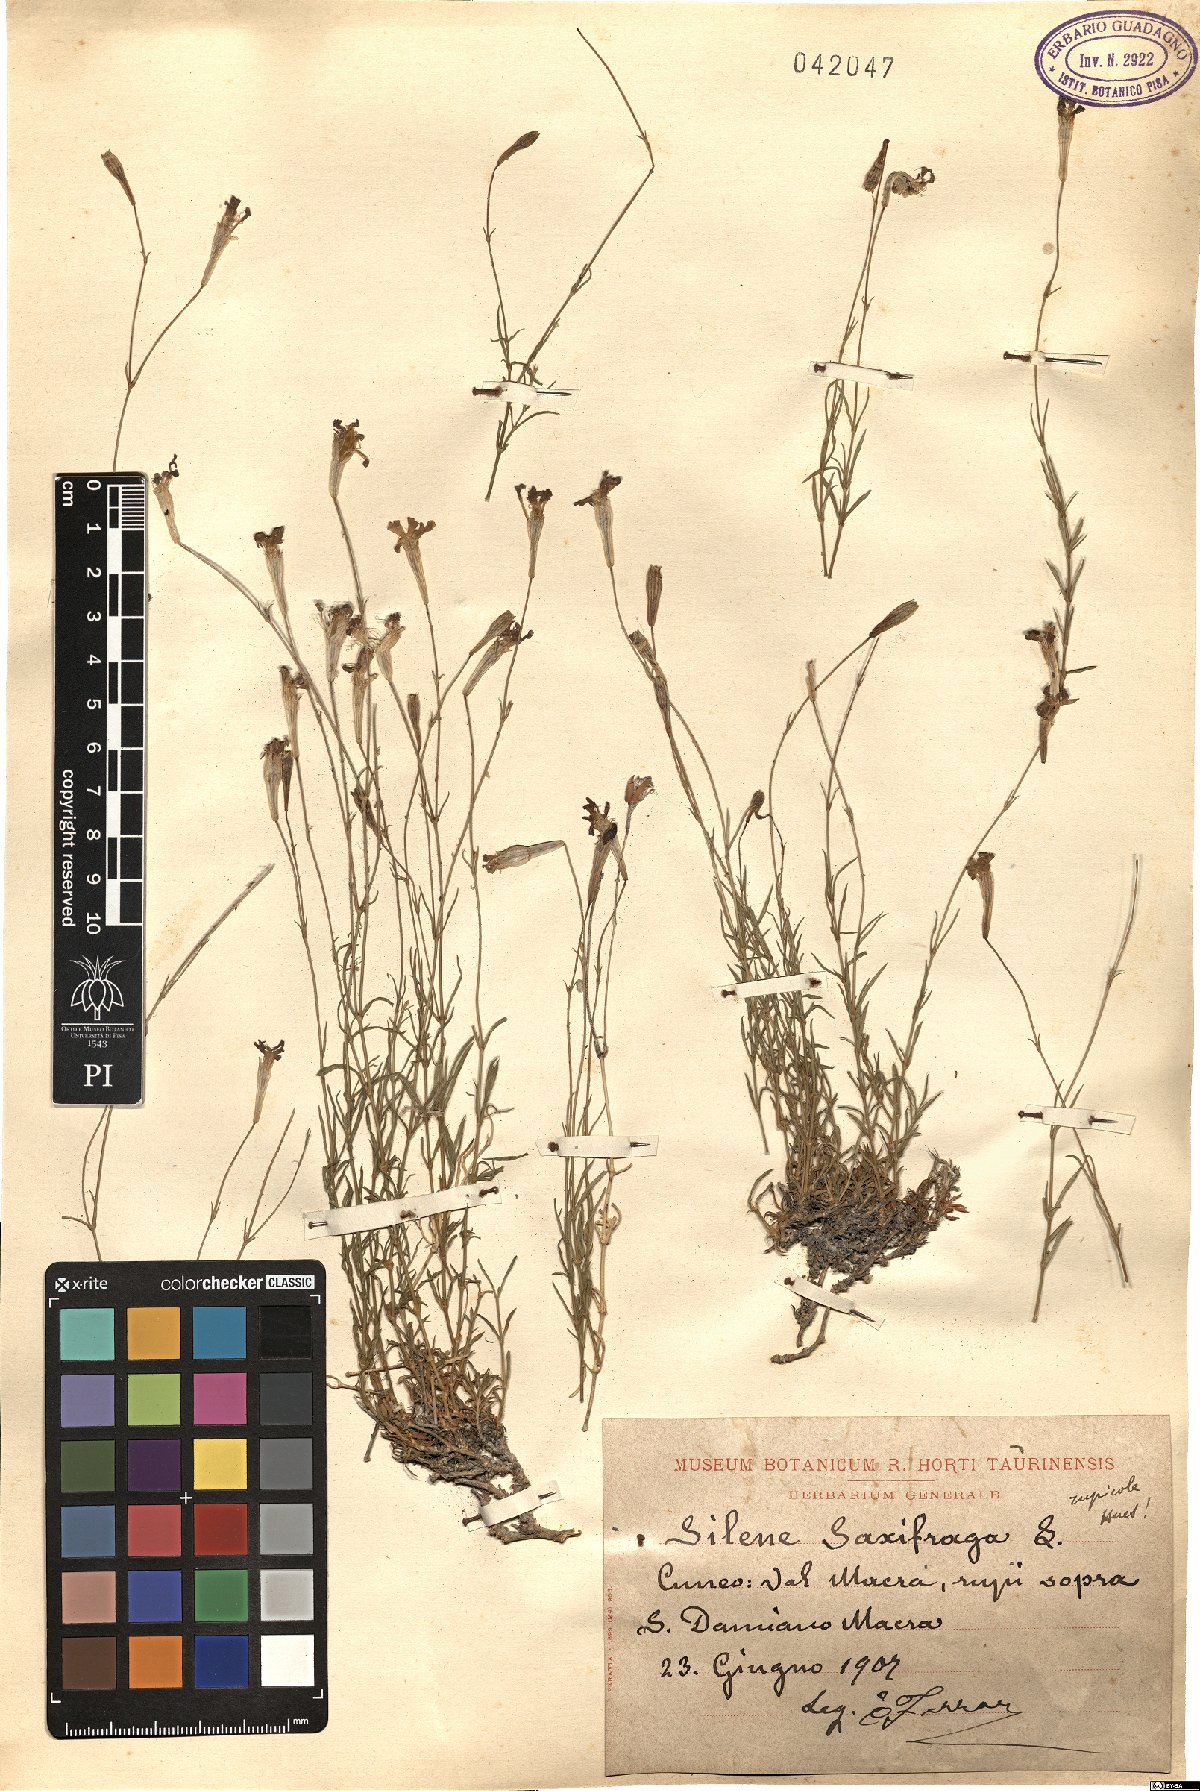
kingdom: Plantae
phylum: Tracheophyta
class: Magnoliopsida
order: Caryophyllales
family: Caryophyllaceae
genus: Silene
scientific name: Silene saxifraga
